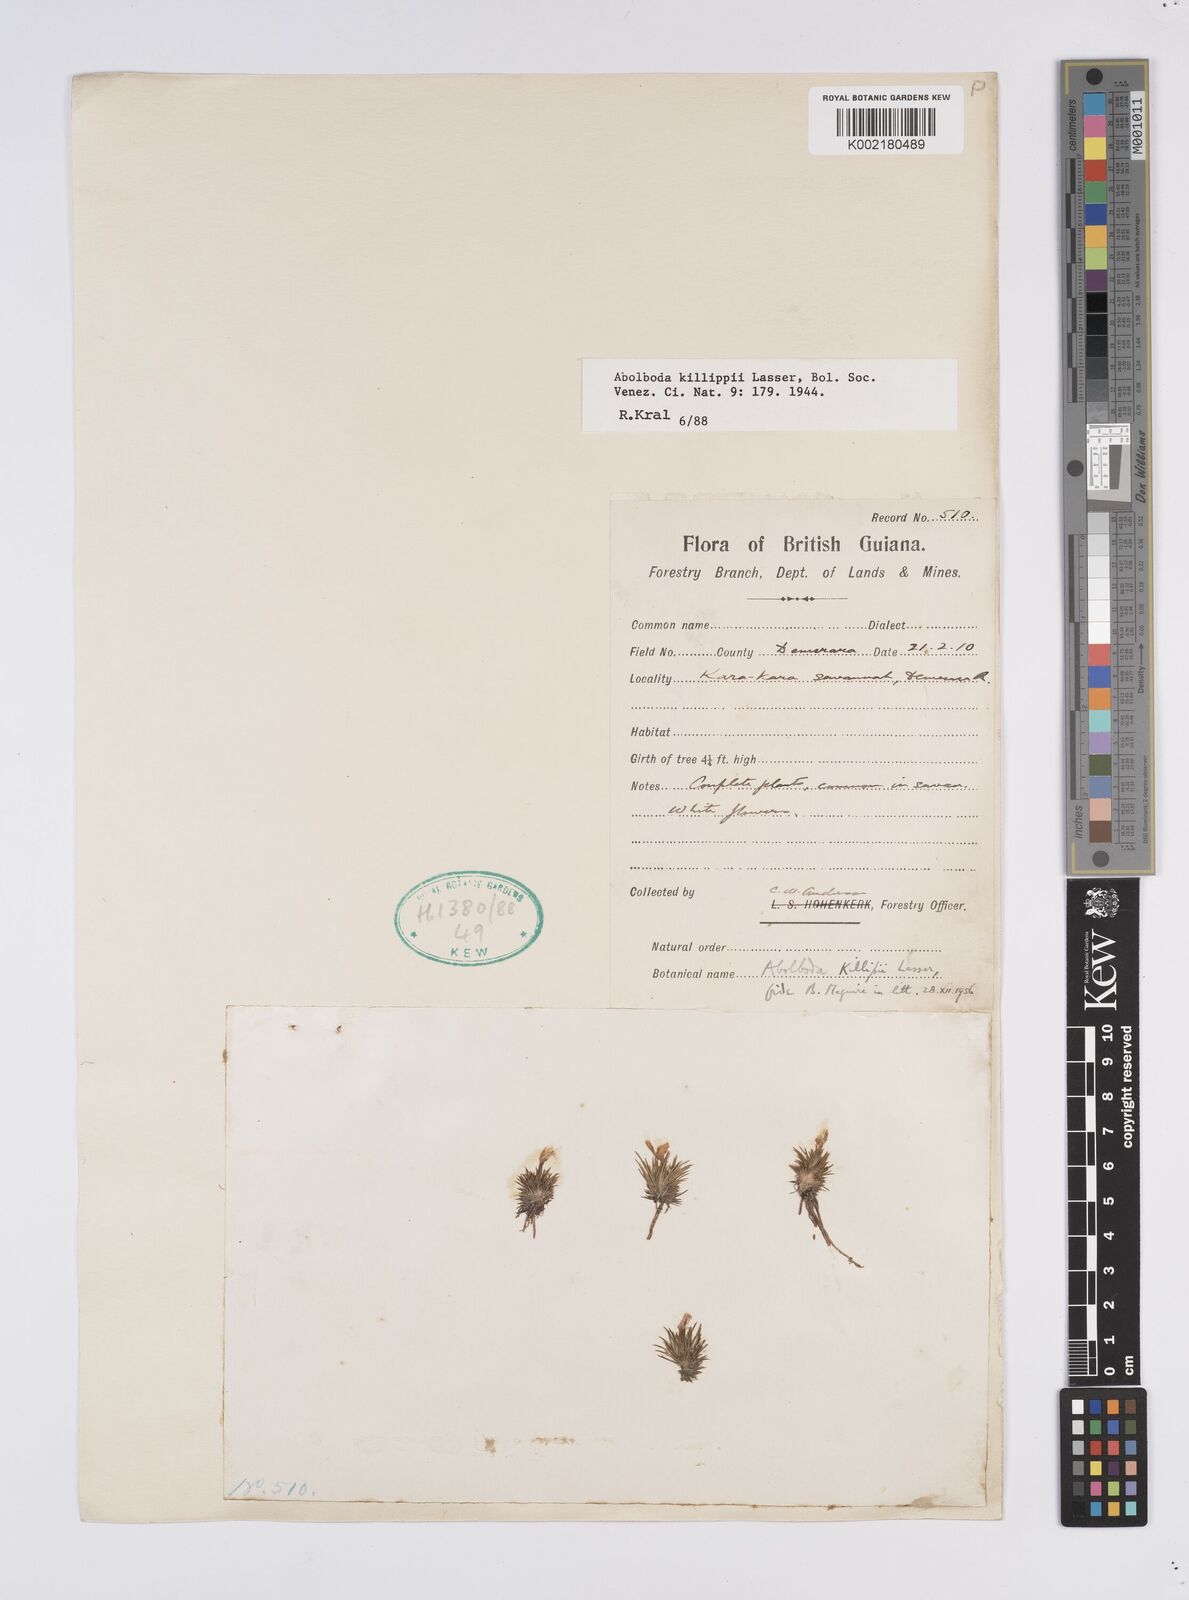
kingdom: Plantae
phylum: Tracheophyta
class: Liliopsida
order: Poales
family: Xyridaceae
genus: Abolboda
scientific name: Abolboda killipii
